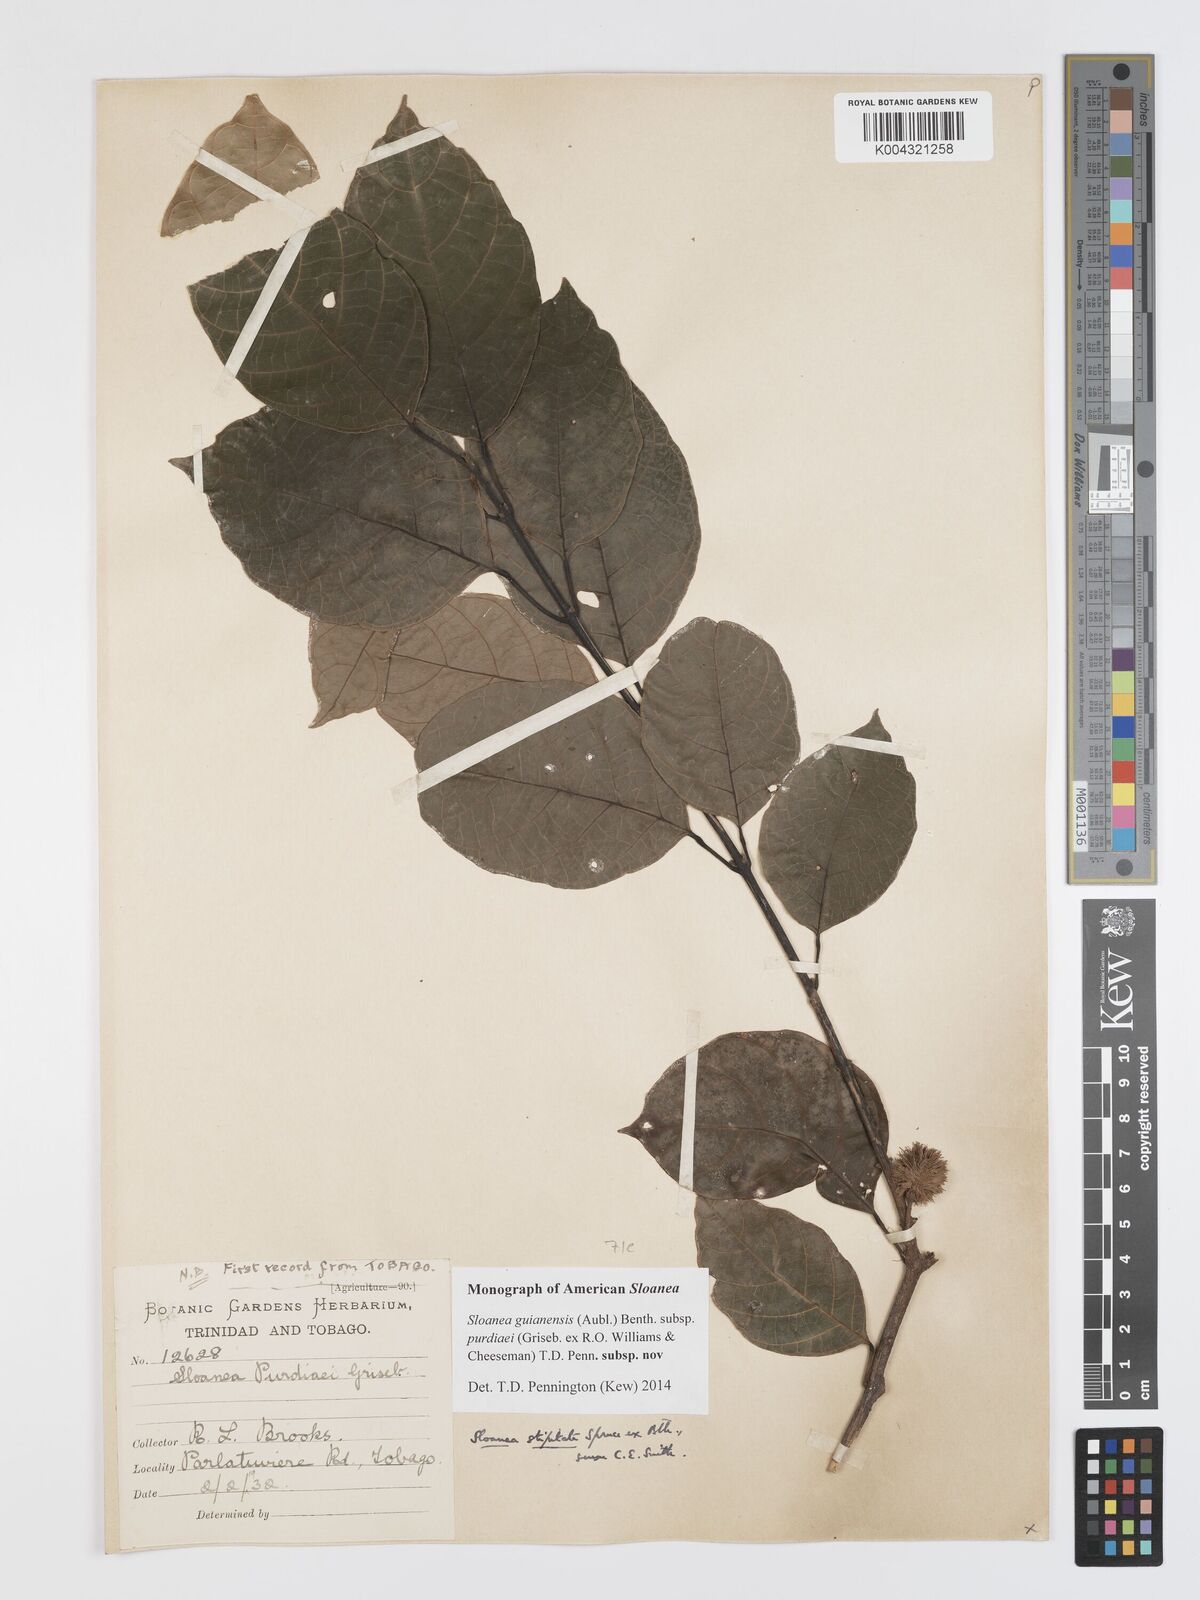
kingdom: Plantae
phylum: Tracheophyta
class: Magnoliopsida
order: Oxalidales
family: Elaeocarpaceae
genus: Sloanea
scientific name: Sloanea guianensis
